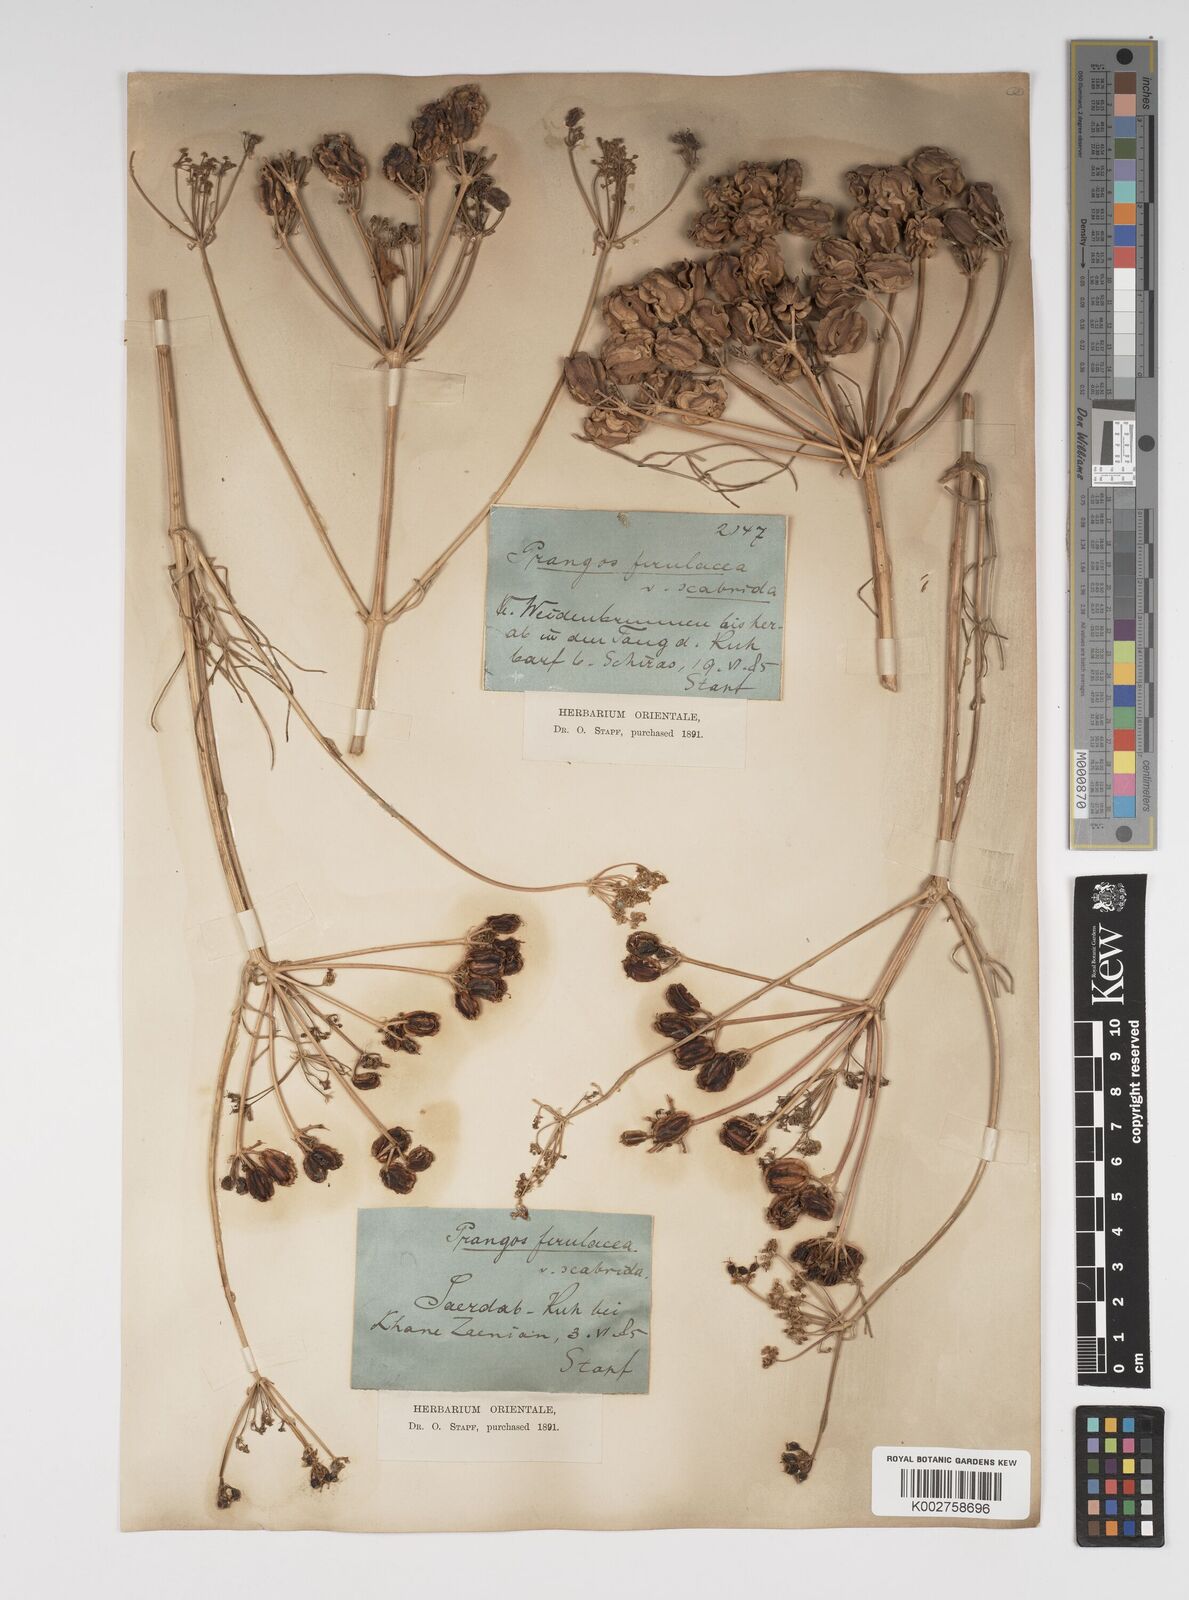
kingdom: Plantae
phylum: Tracheophyta
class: Magnoliopsida
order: Apiales
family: Apiaceae
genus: Prangos
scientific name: Prangos ferulacea
